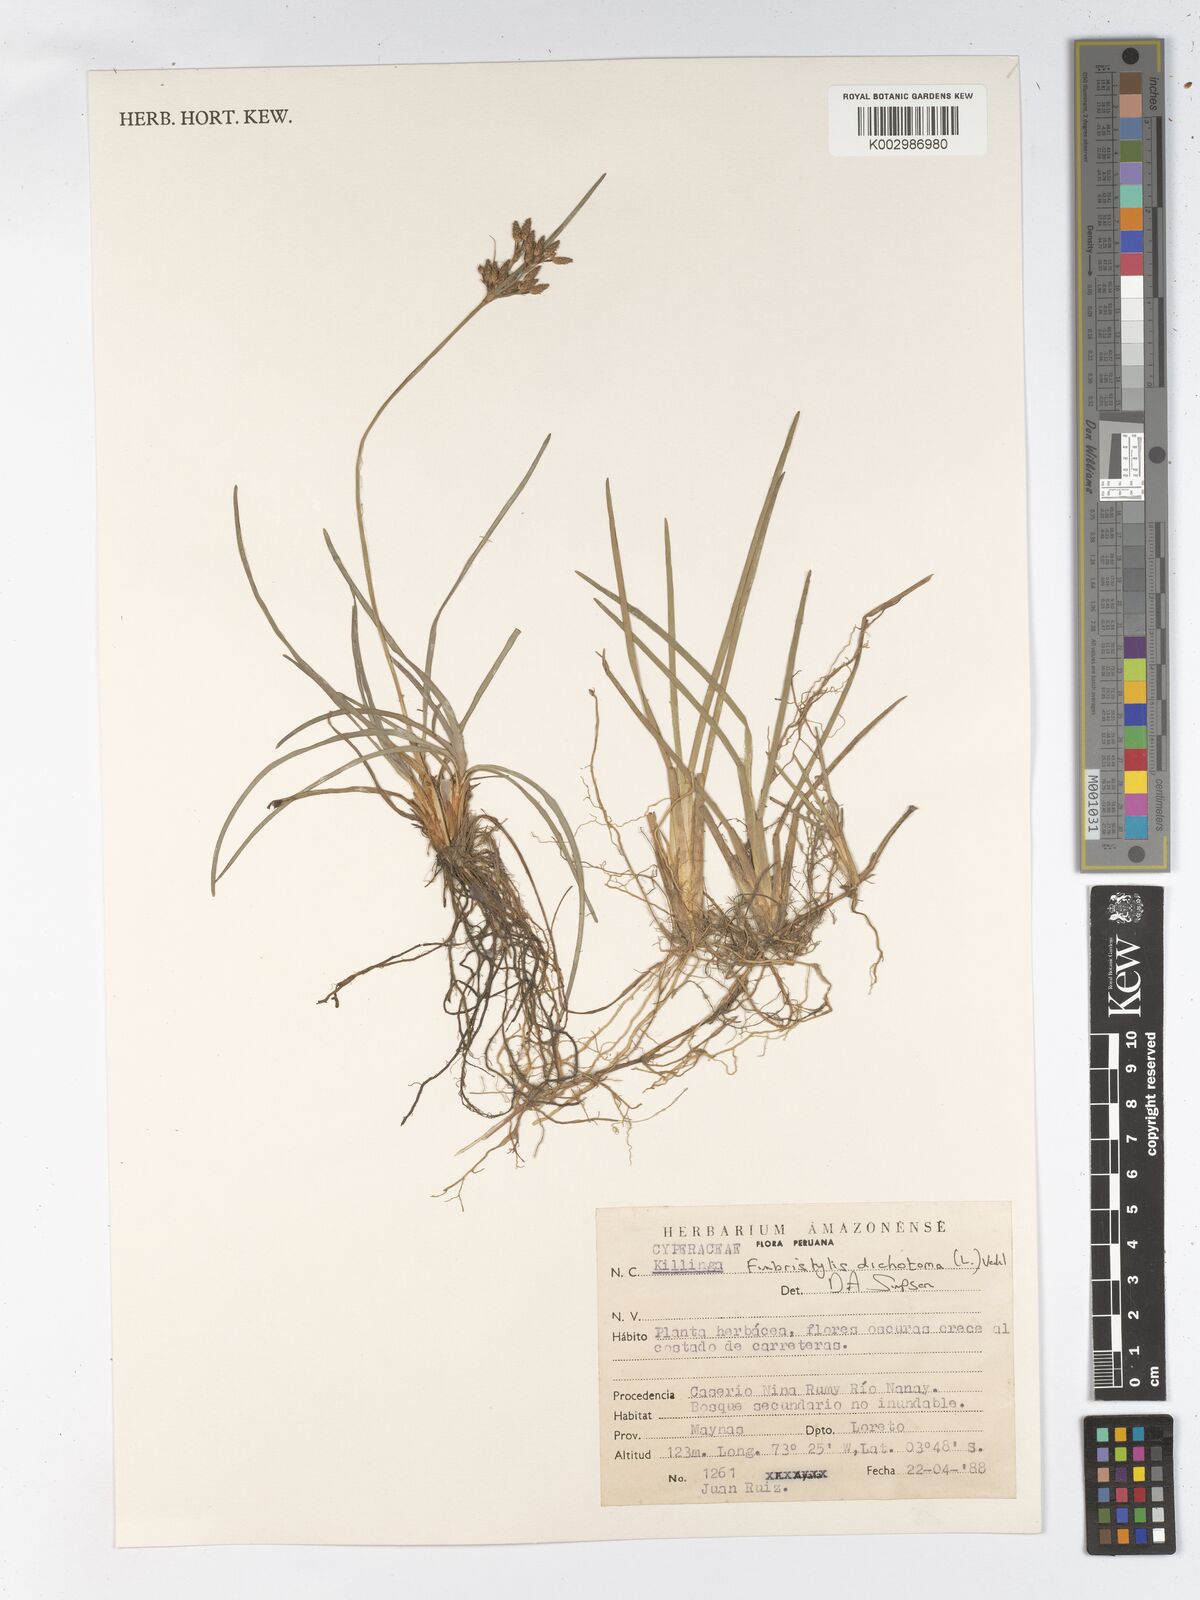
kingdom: Plantae
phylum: Tracheophyta
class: Liliopsida
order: Poales
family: Cyperaceae
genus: Fimbristylis
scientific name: Fimbristylis dichotoma
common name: Forked fimbry
